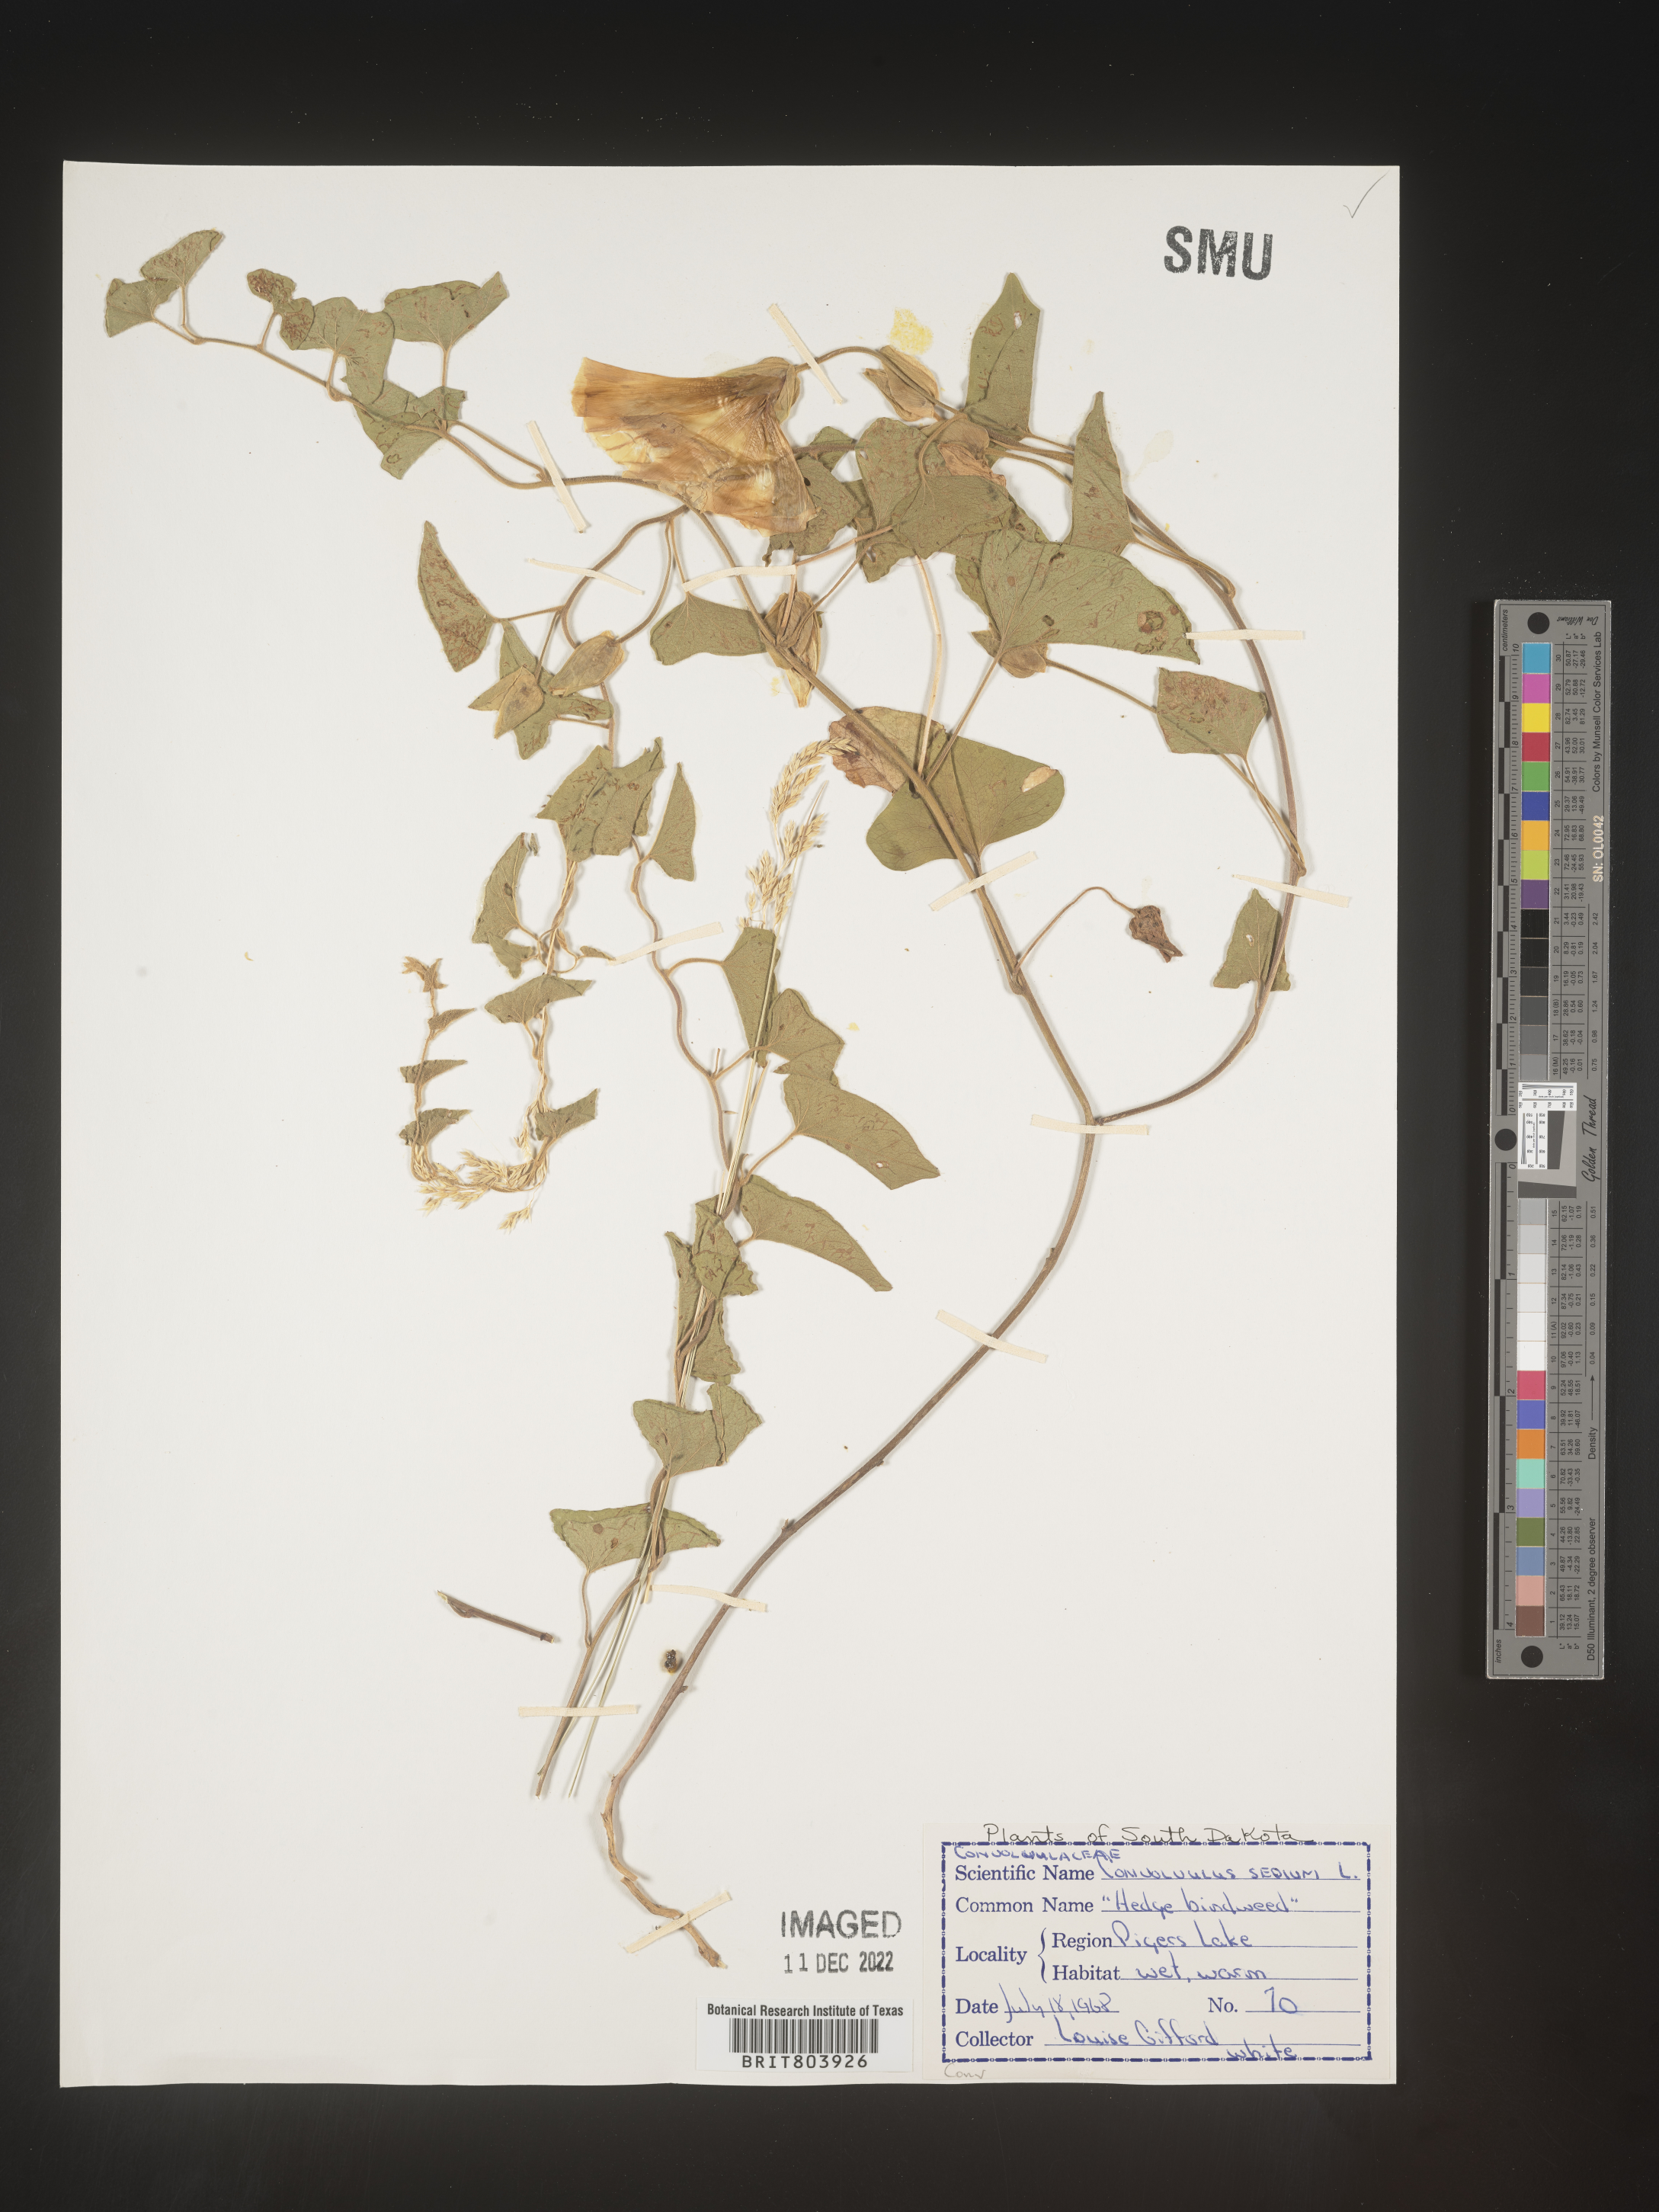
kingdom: Plantae
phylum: Tracheophyta
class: Magnoliopsida
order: Solanales
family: Convolvulaceae
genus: Calystegia
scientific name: Calystegia sepium
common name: Hedge bindweed
